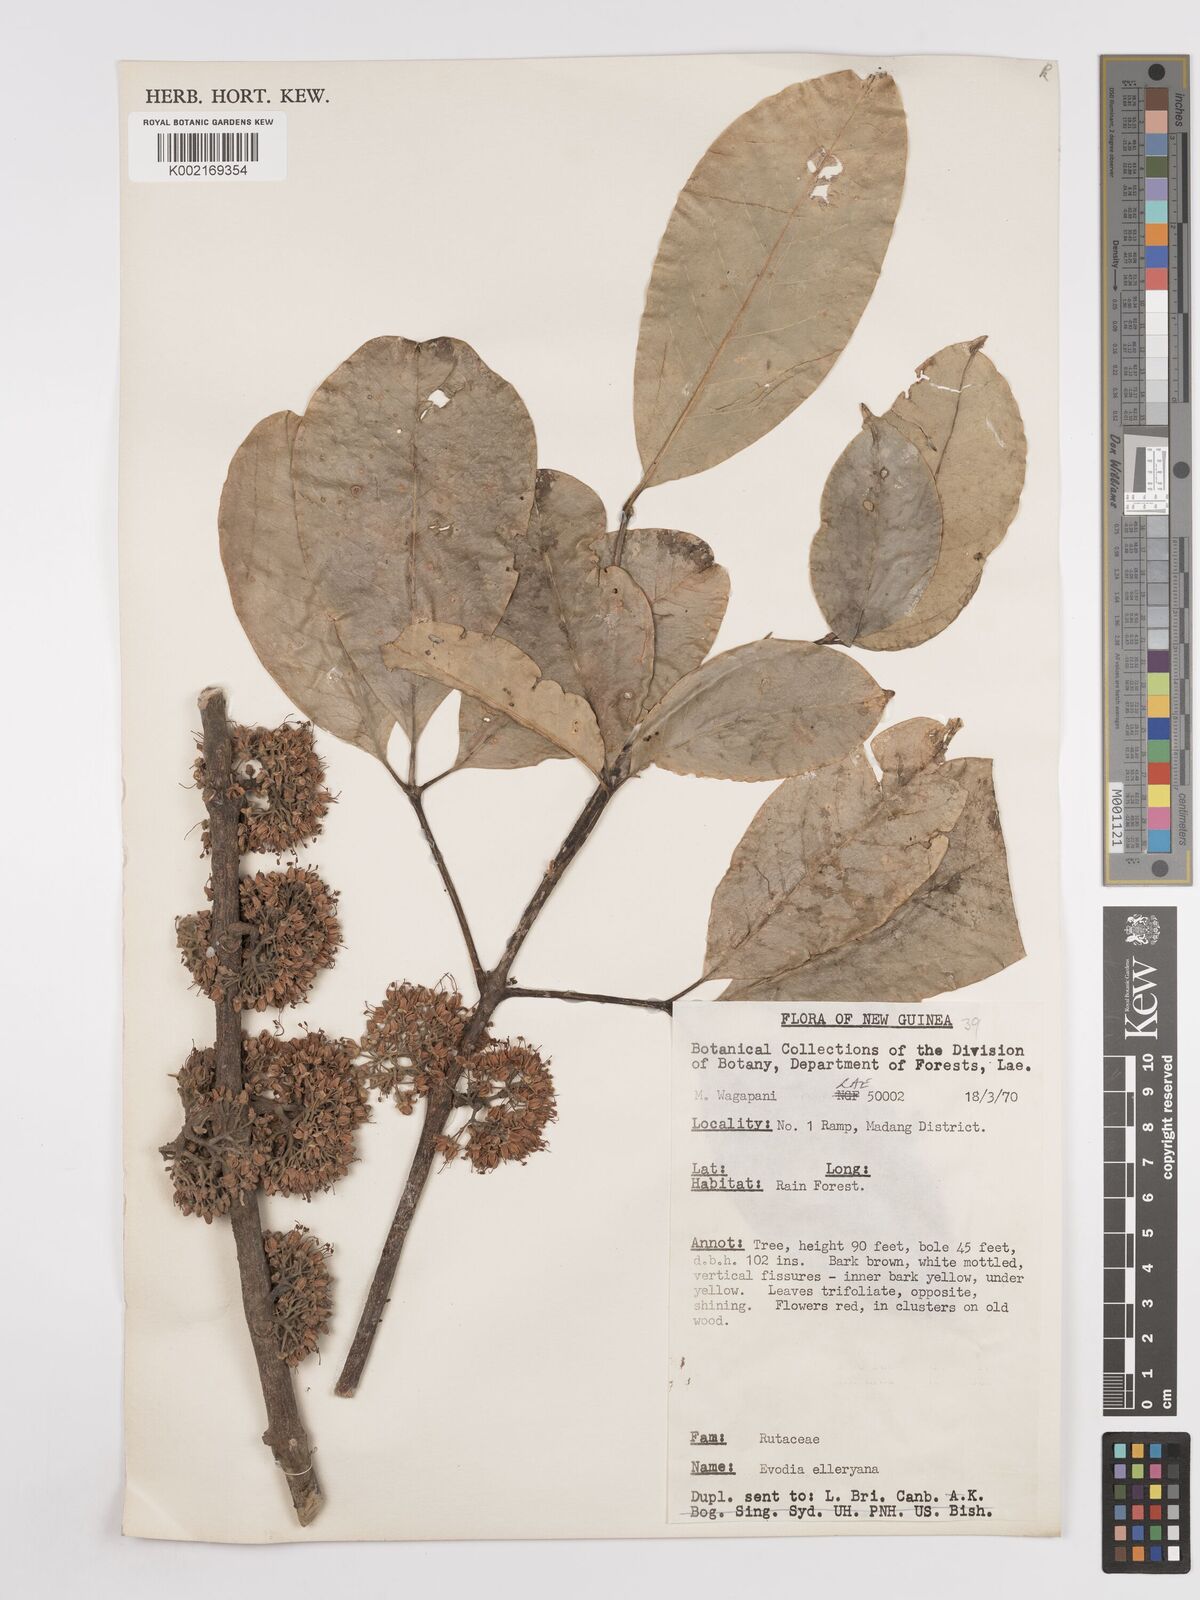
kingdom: Plantae
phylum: Tracheophyta
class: Magnoliopsida
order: Sapindales
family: Rutaceae
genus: Melicope
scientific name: Melicope elleryana
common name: Pink euodia
